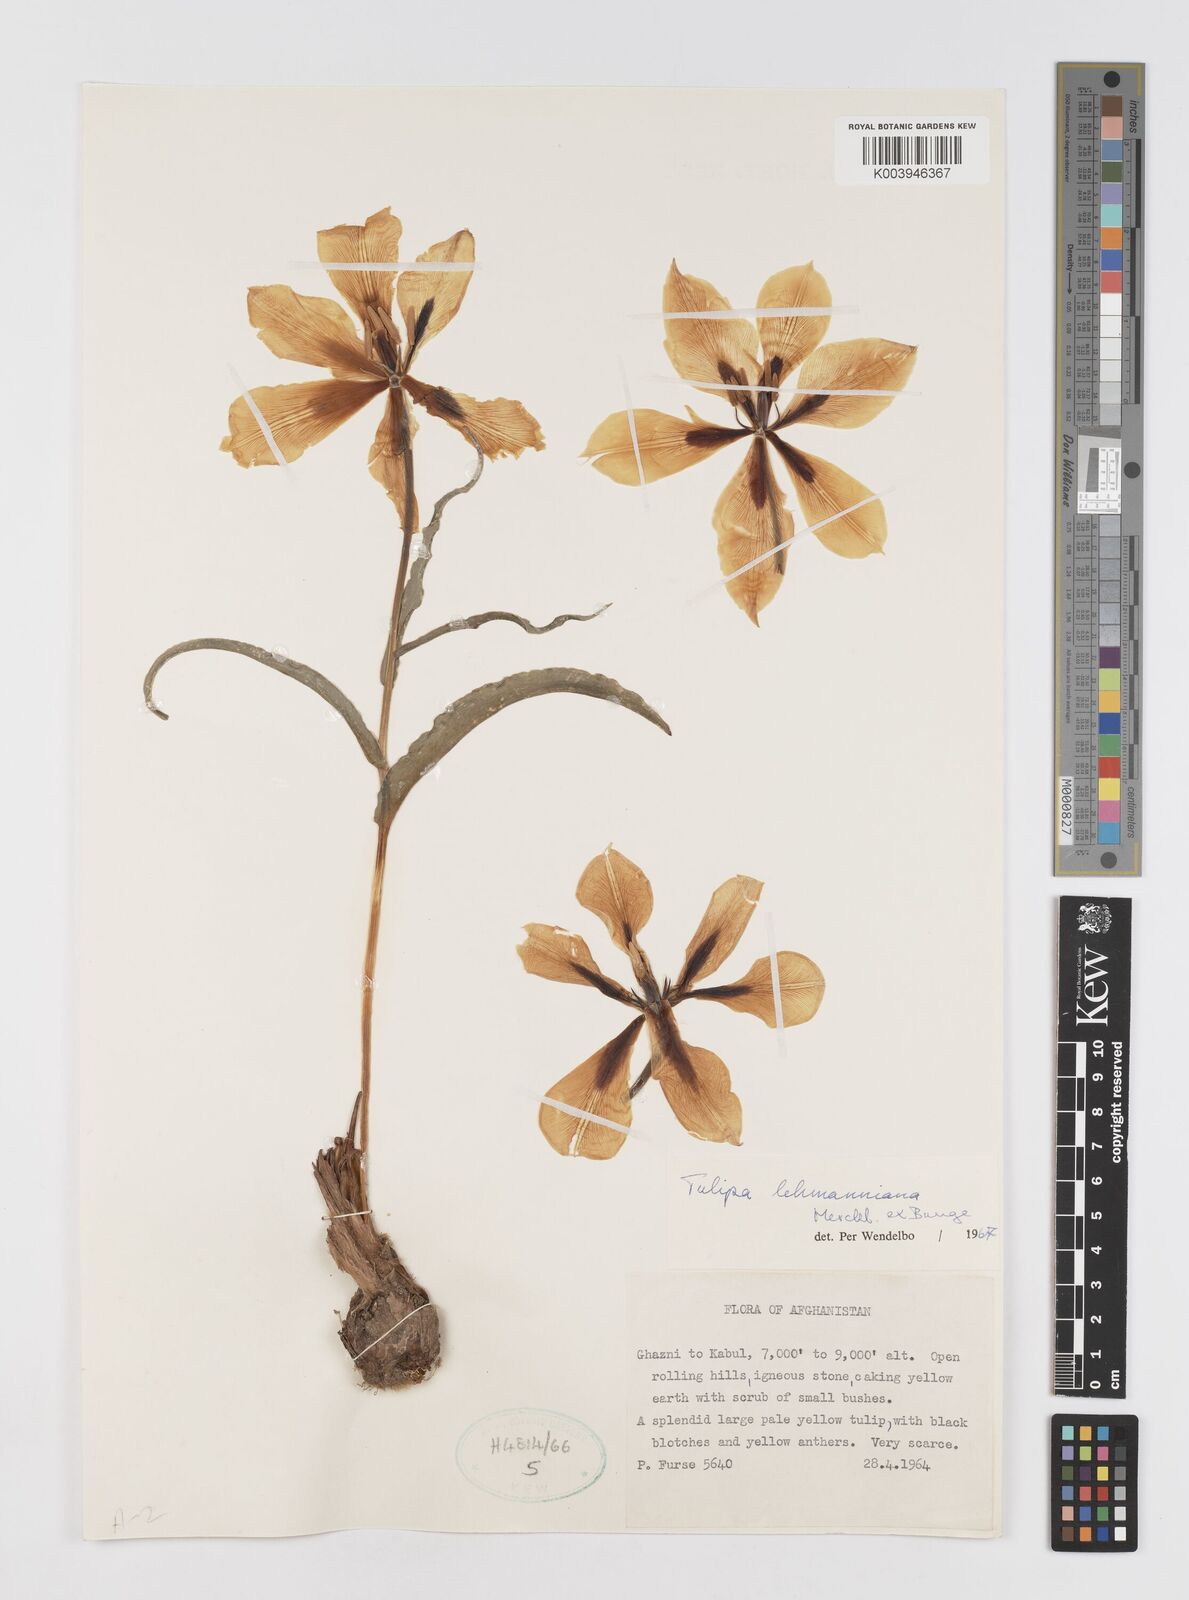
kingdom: Plantae
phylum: Tracheophyta
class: Liliopsida
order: Liliales
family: Liliaceae
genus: Tulipa
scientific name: Tulipa lehmanniana
